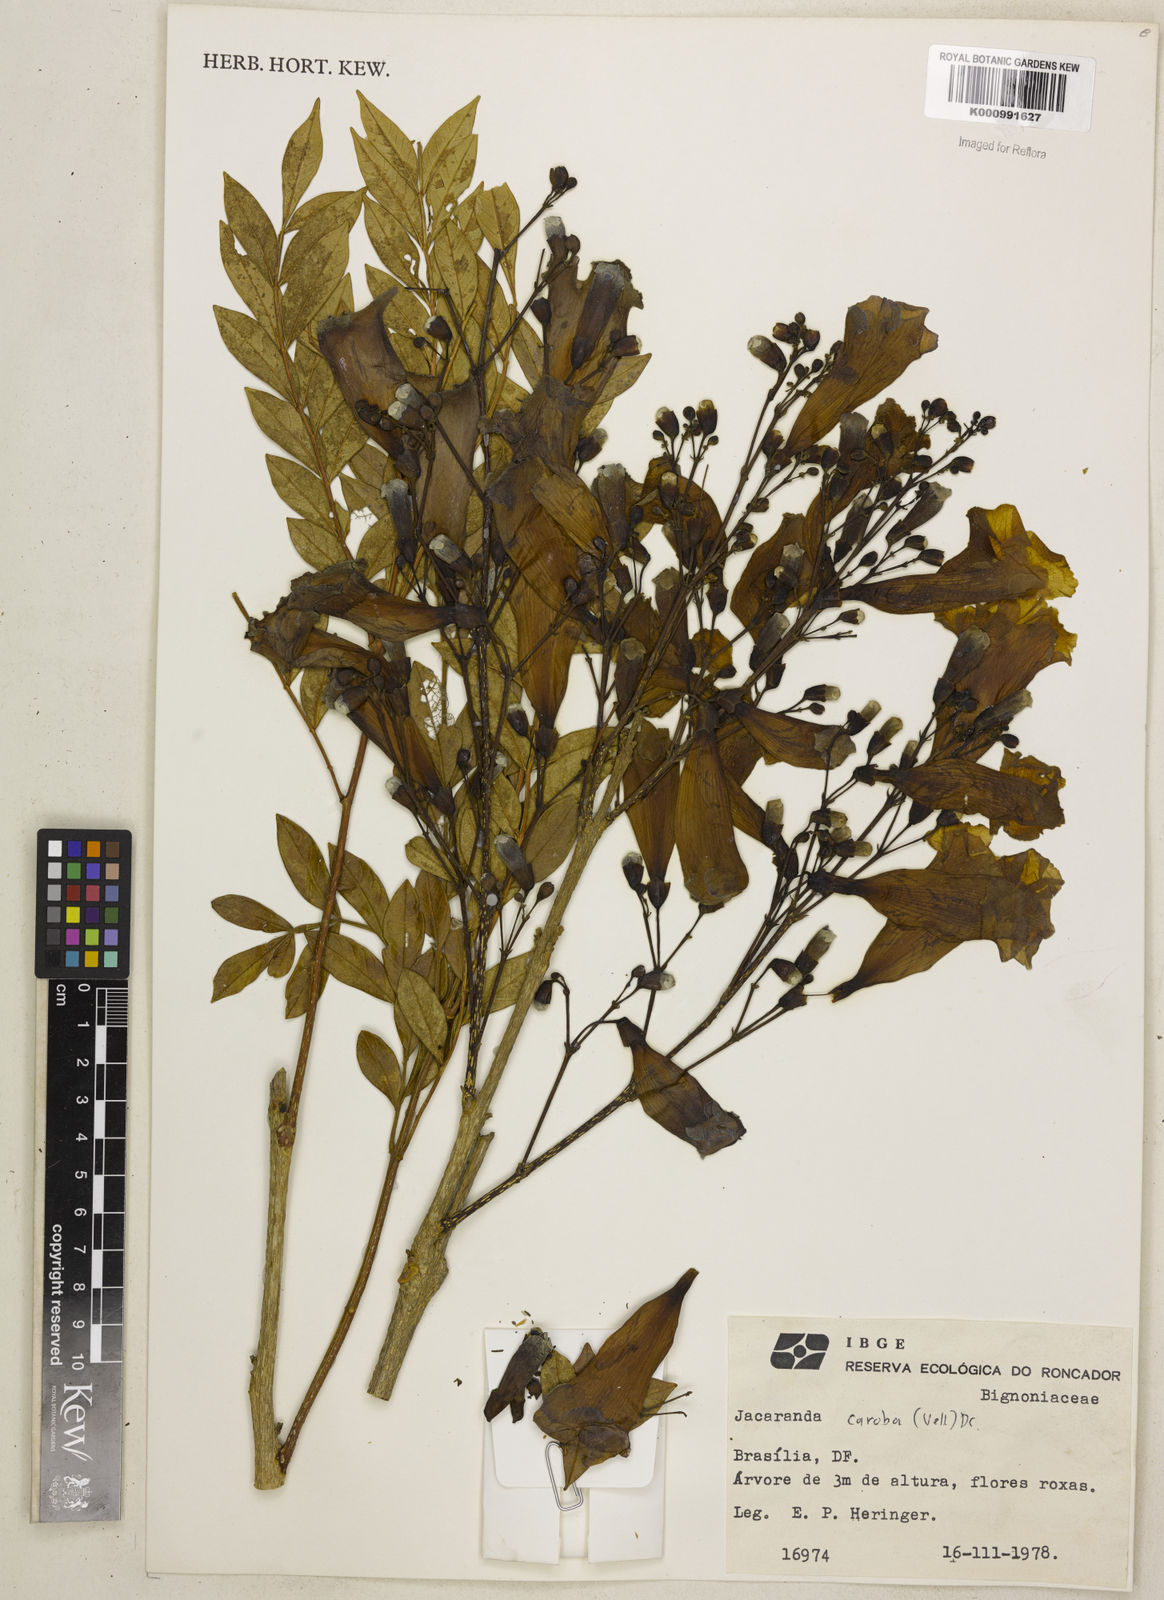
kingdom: Plantae
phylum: Tracheophyta
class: Magnoliopsida
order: Lamiales
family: Bignoniaceae
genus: Jacaranda
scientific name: Jacaranda caroba
